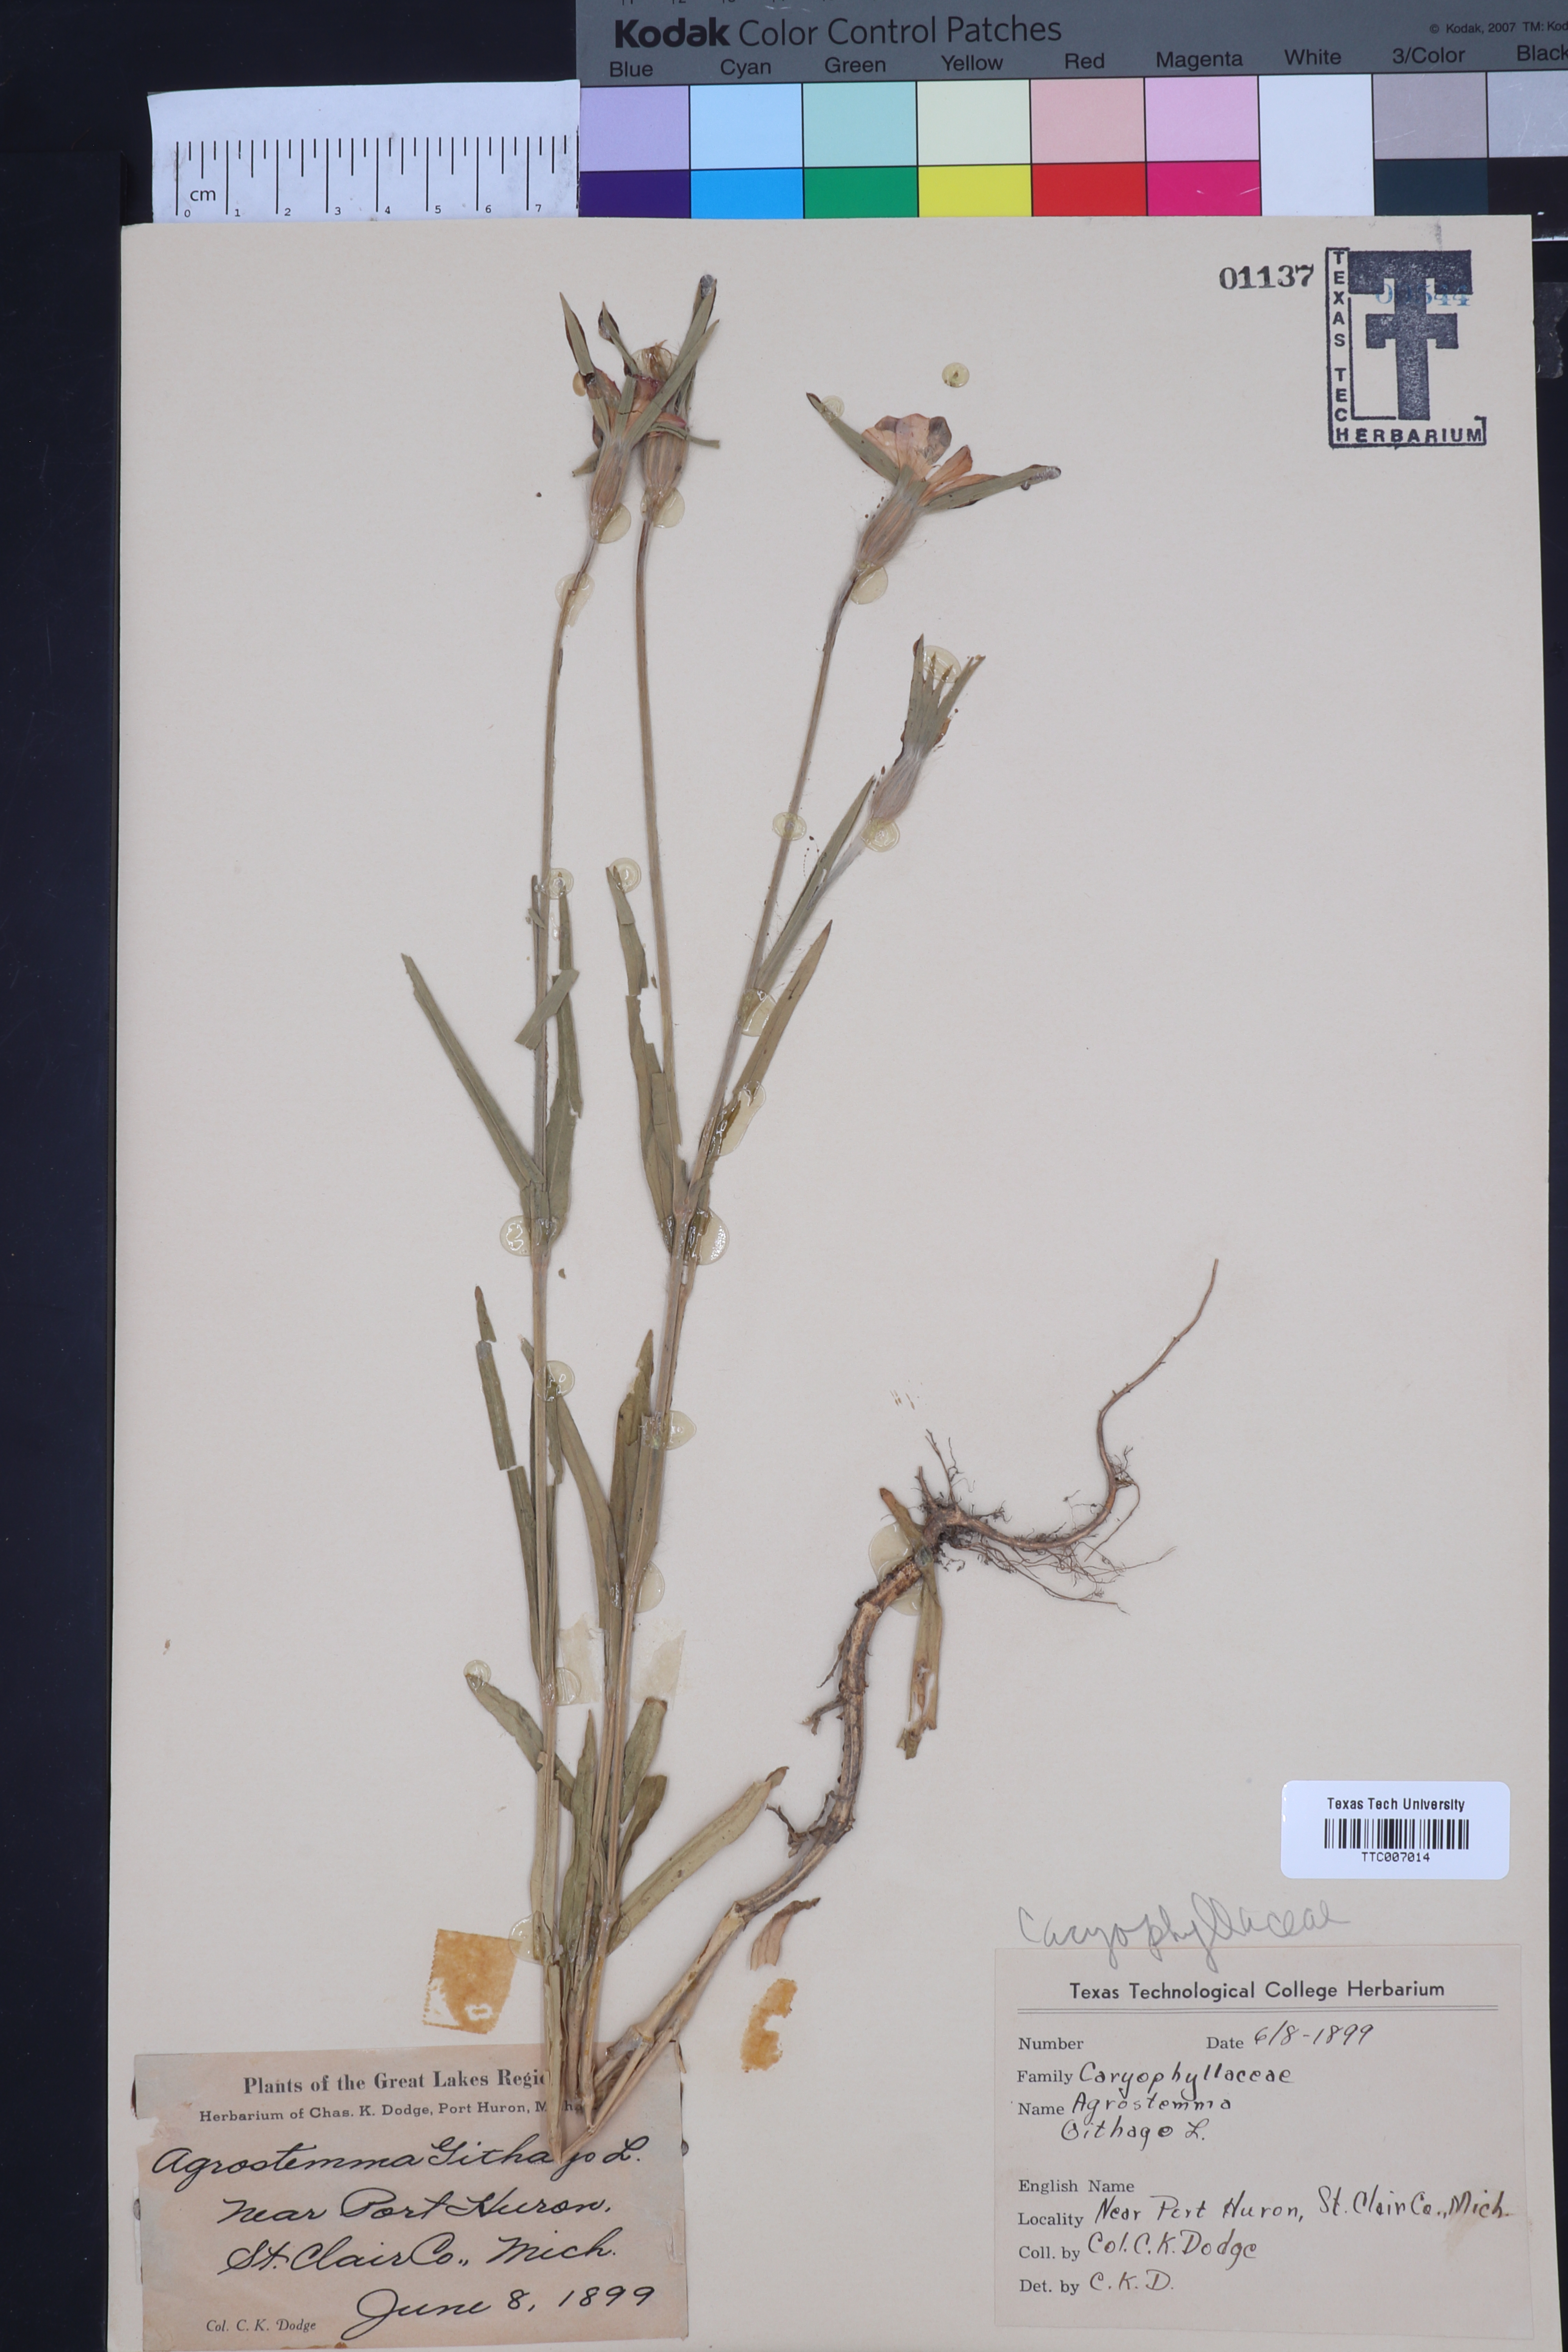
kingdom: Plantae
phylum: Tracheophyta
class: Magnoliopsida
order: Caryophyllales
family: Caryophyllaceae
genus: Agrostemma
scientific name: Agrostemma githago
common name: Common corncockle
